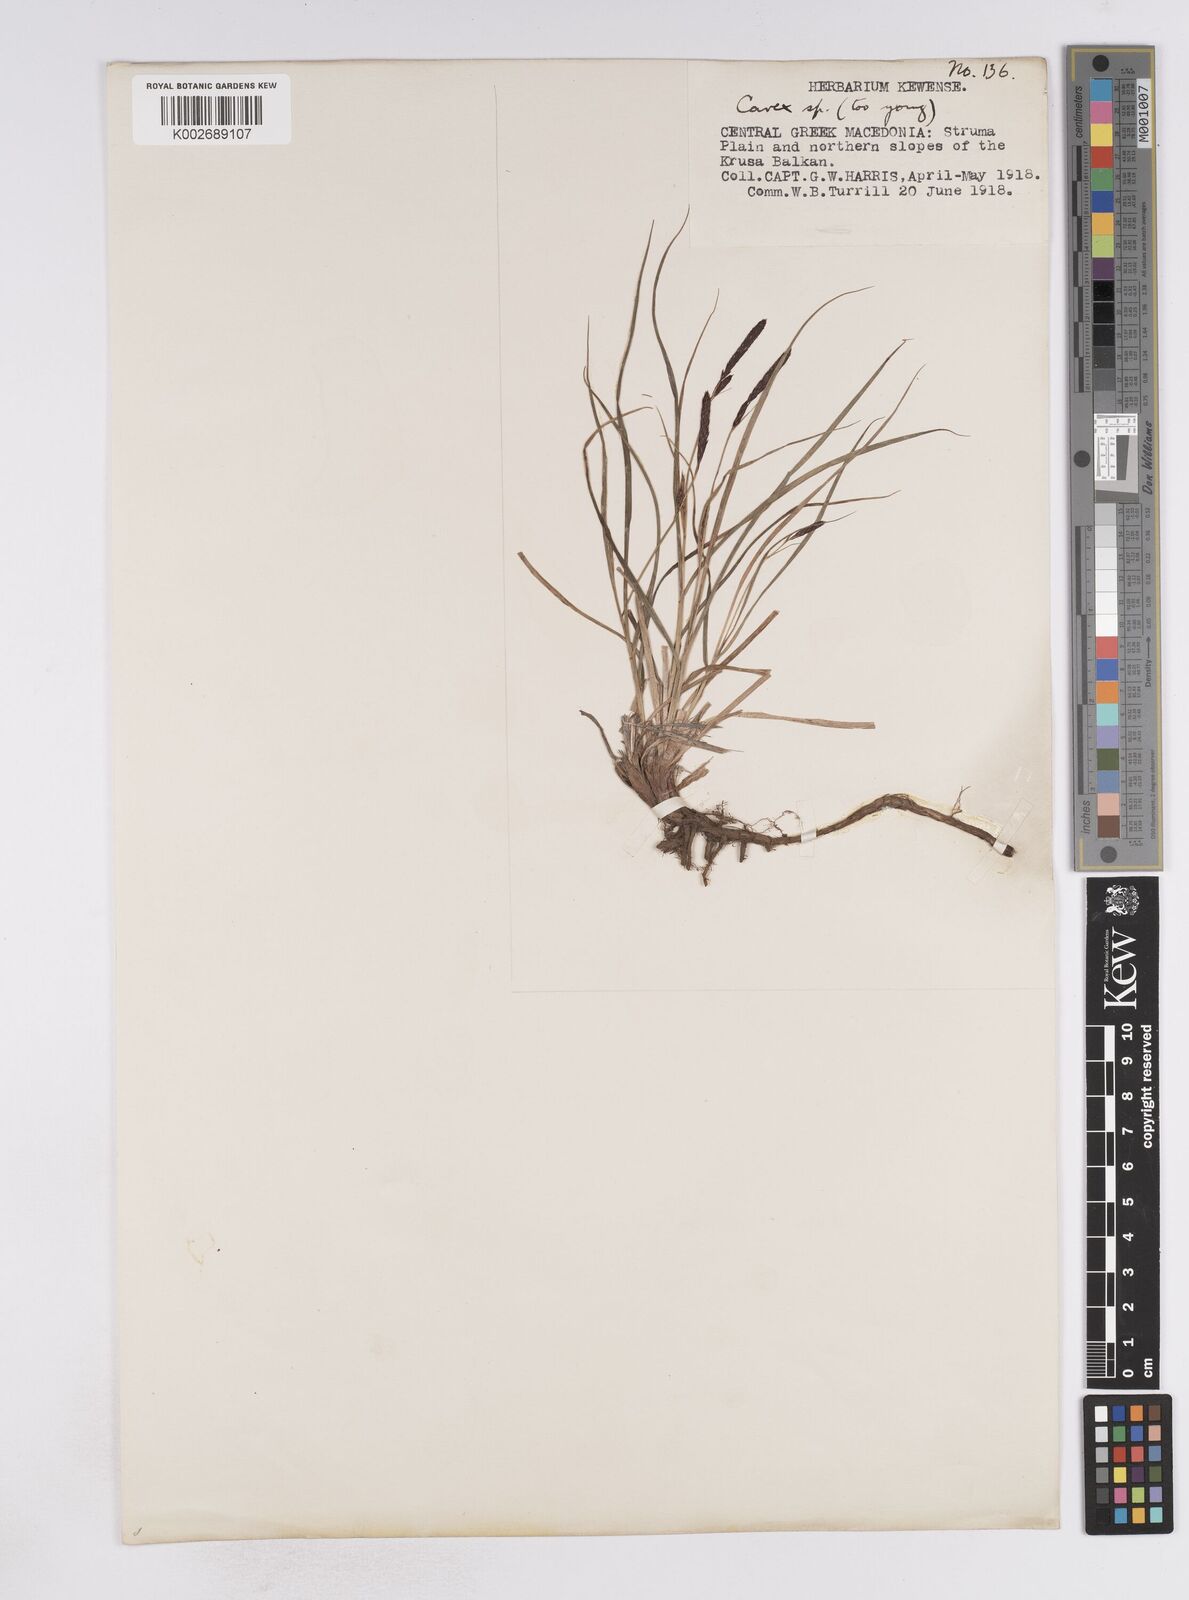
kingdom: Plantae
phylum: Tracheophyta
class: Liliopsida
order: Poales
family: Cyperaceae
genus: Carex
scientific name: Carex atrata
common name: Black alpine sedge
